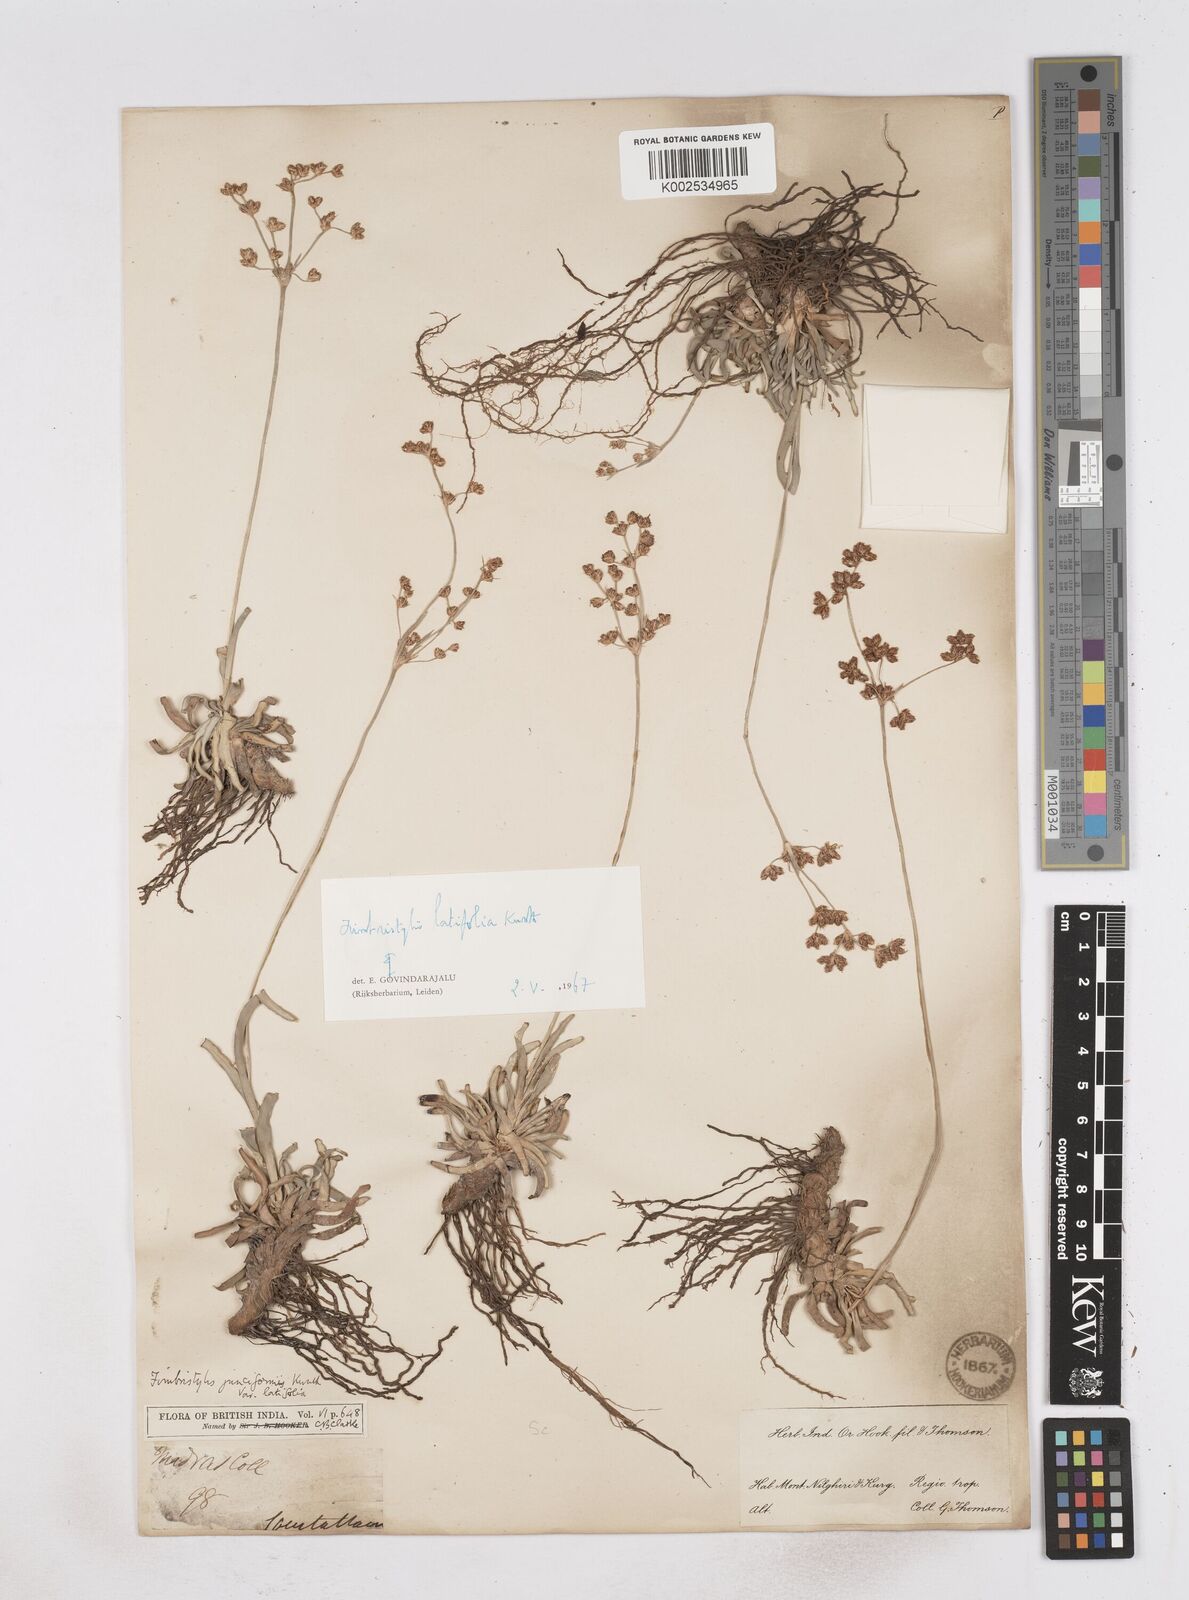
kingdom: Plantae
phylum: Tracheophyta
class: Liliopsida
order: Poales
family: Cyperaceae
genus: Fimbristylis
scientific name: Fimbristylis falcata
